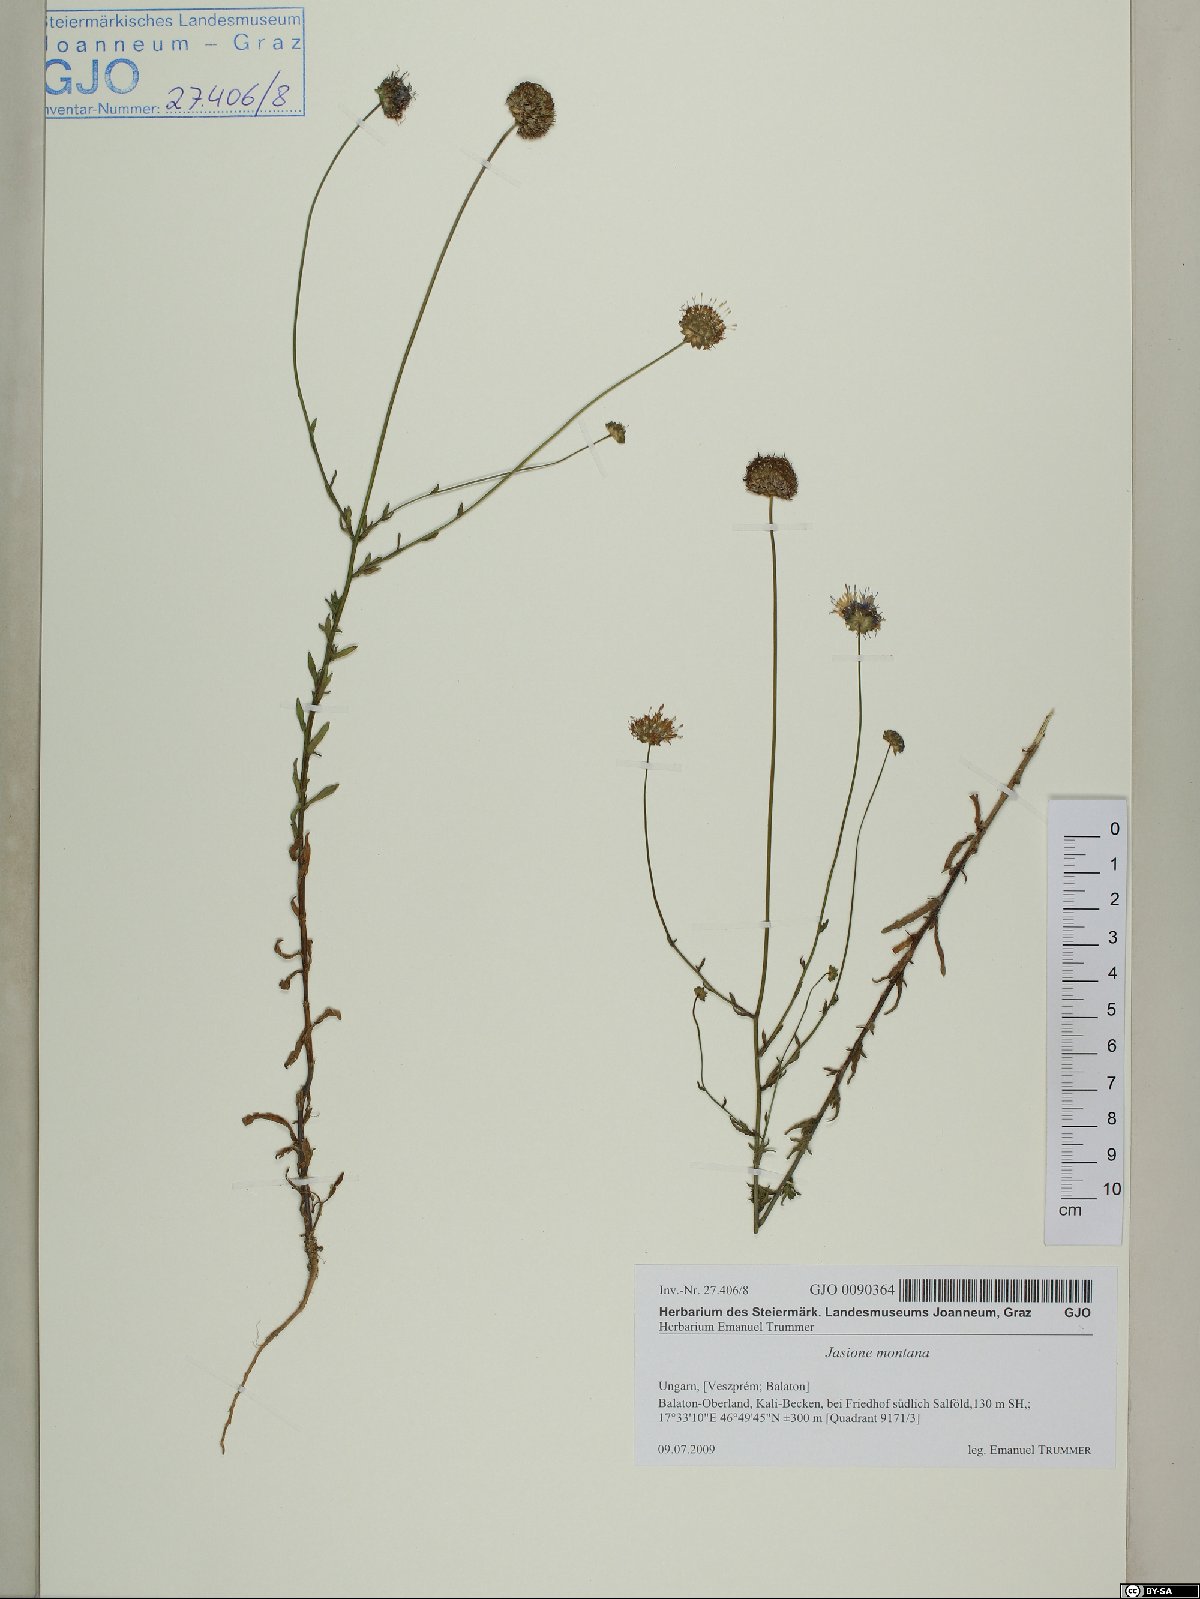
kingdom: Plantae
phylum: Tracheophyta
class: Magnoliopsida
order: Asterales
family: Campanulaceae
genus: Jasione
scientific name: Jasione montana
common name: Sheep's-bit
